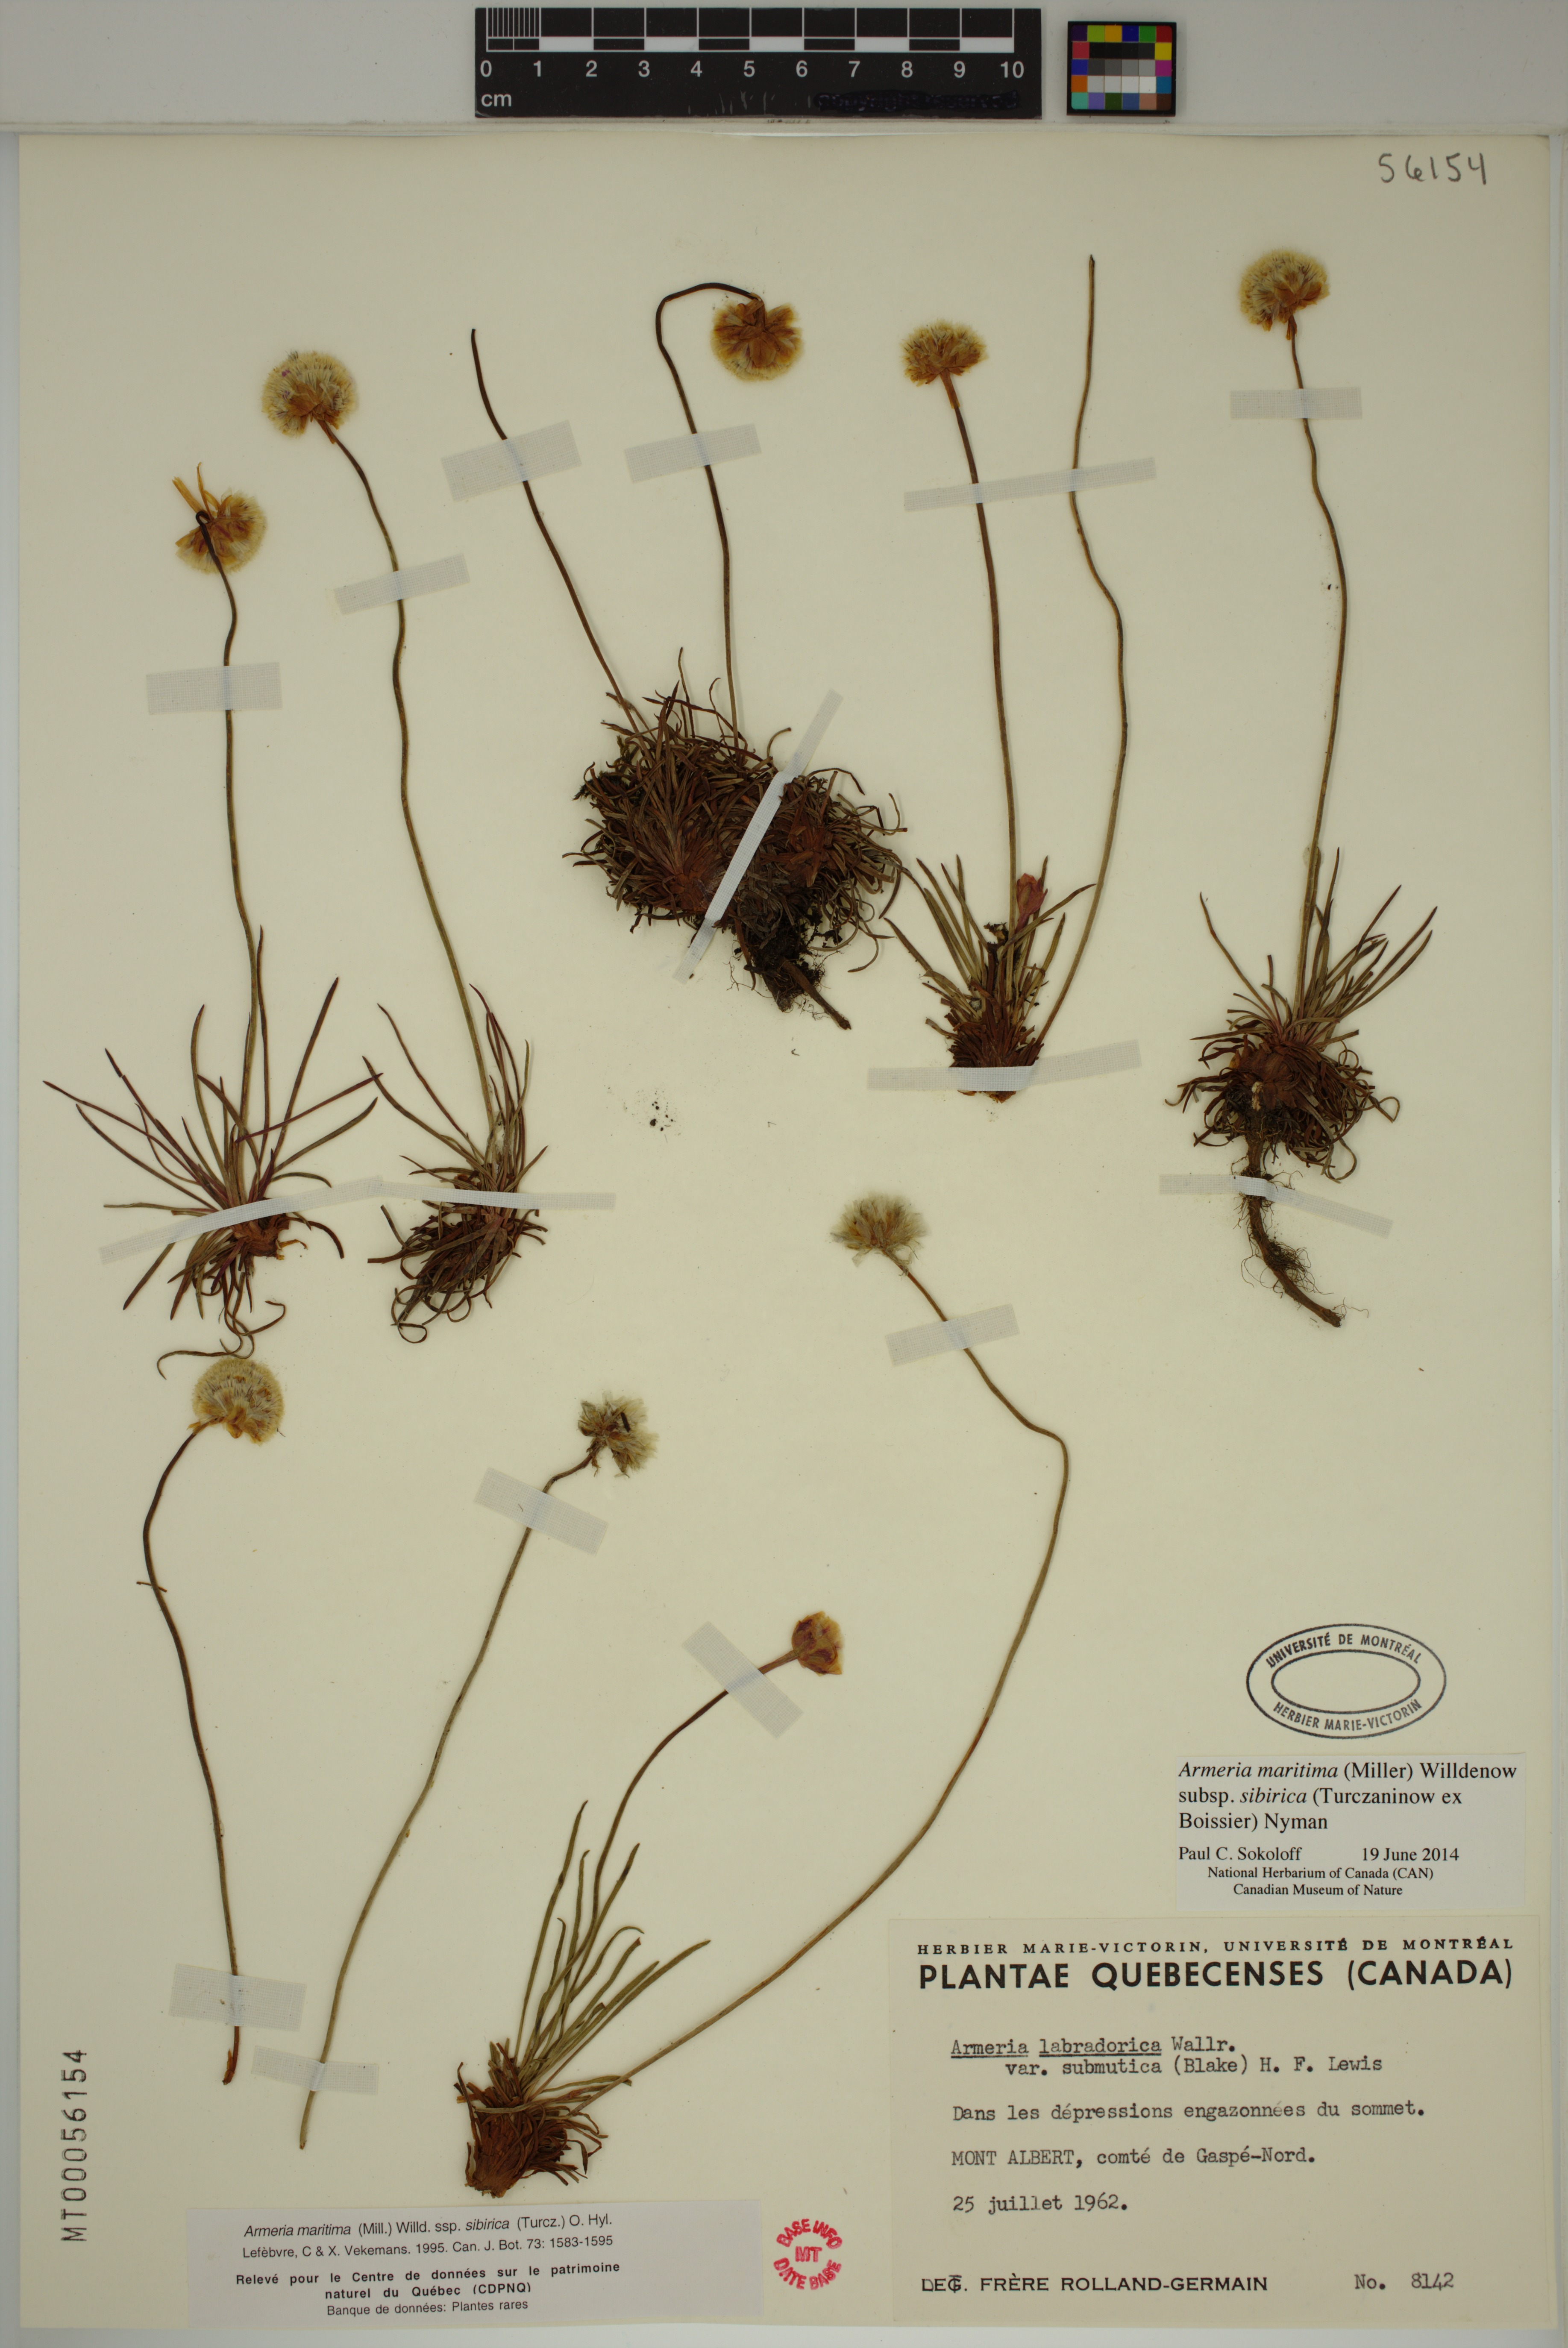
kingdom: Plantae
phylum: Tracheophyta
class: Magnoliopsida
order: Caryophyllales
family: Plumbaginaceae
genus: Armeria
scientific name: Armeria maritima
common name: Thrift
